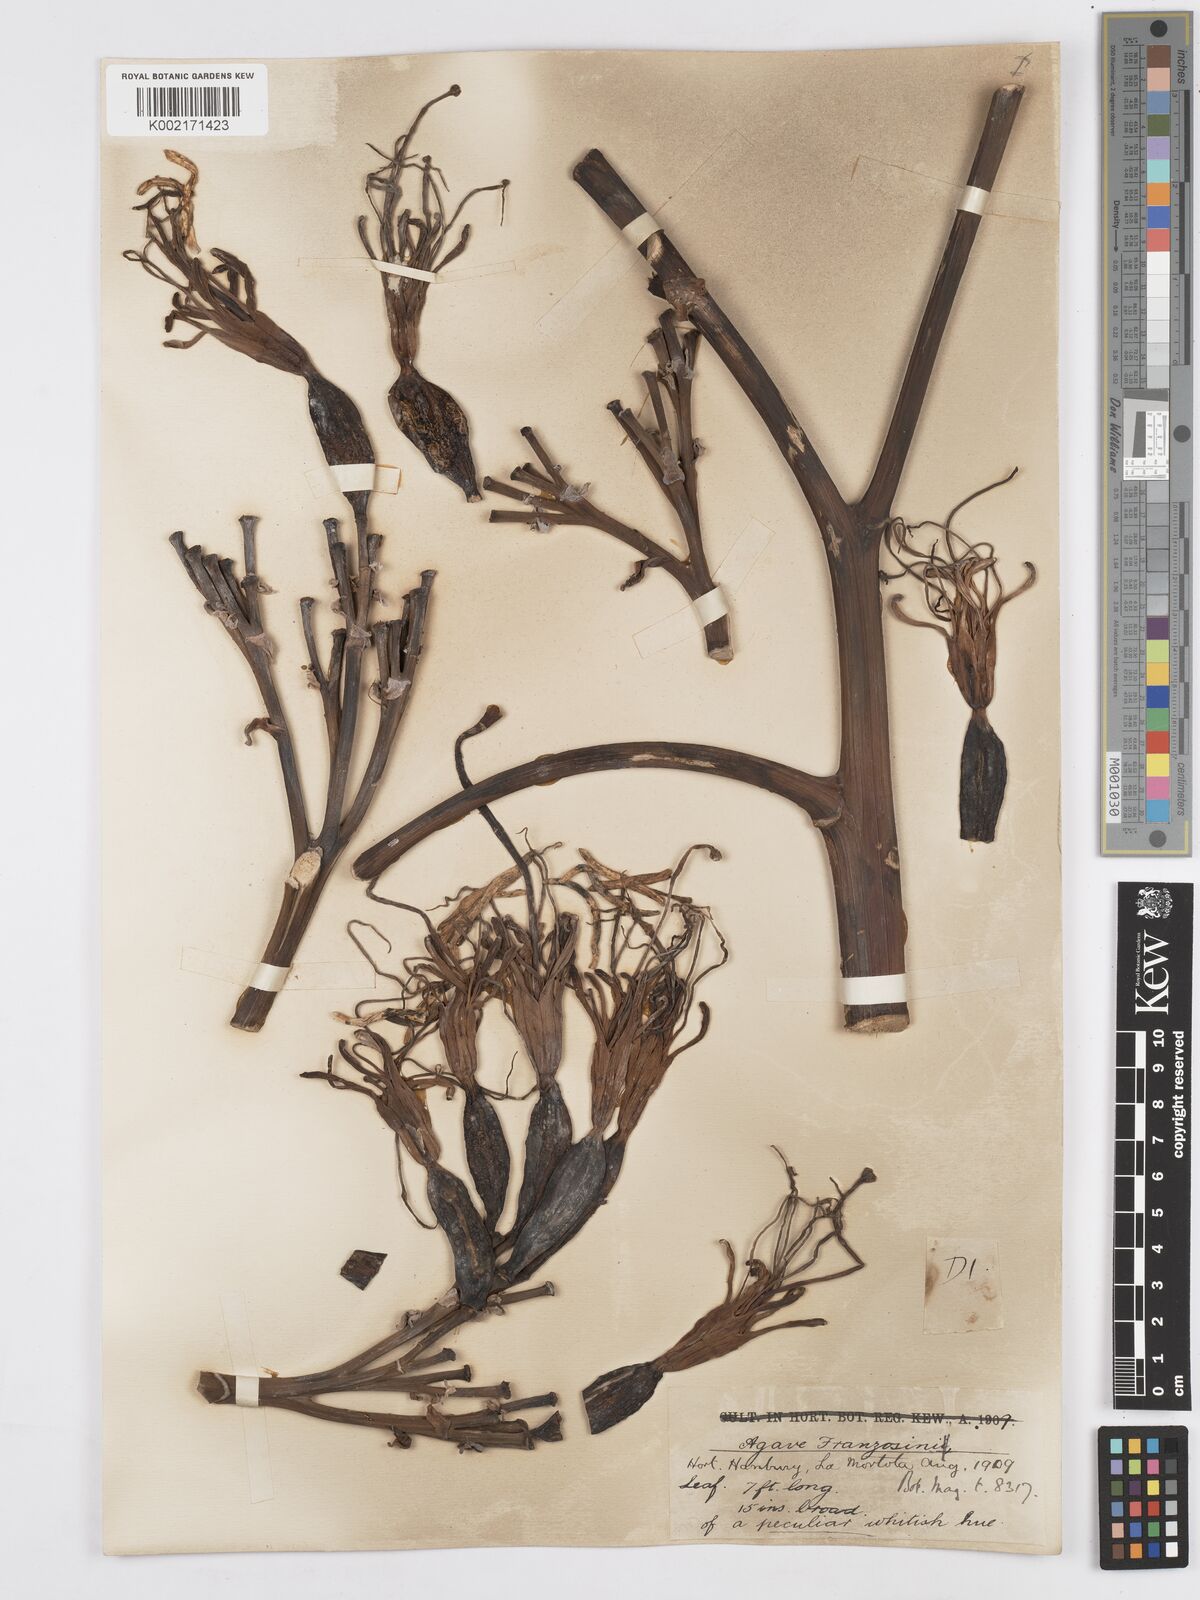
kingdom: Plantae
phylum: Tracheophyta
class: Liliopsida
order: Asparagales
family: Asparagaceae
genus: Agave
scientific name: Agave americana
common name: Centuryplant
